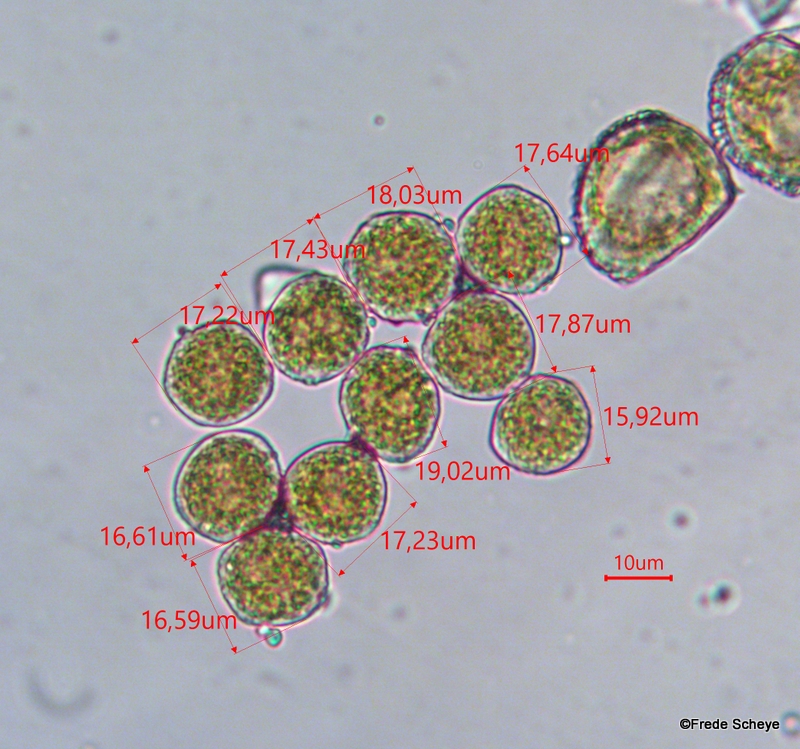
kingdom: Fungi
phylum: Basidiomycota
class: Pucciniomycetes
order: Pucciniales
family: Pucciniaceae
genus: Puccinia
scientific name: Puccinia pulverulenta
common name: dueurt-tvecellerust
